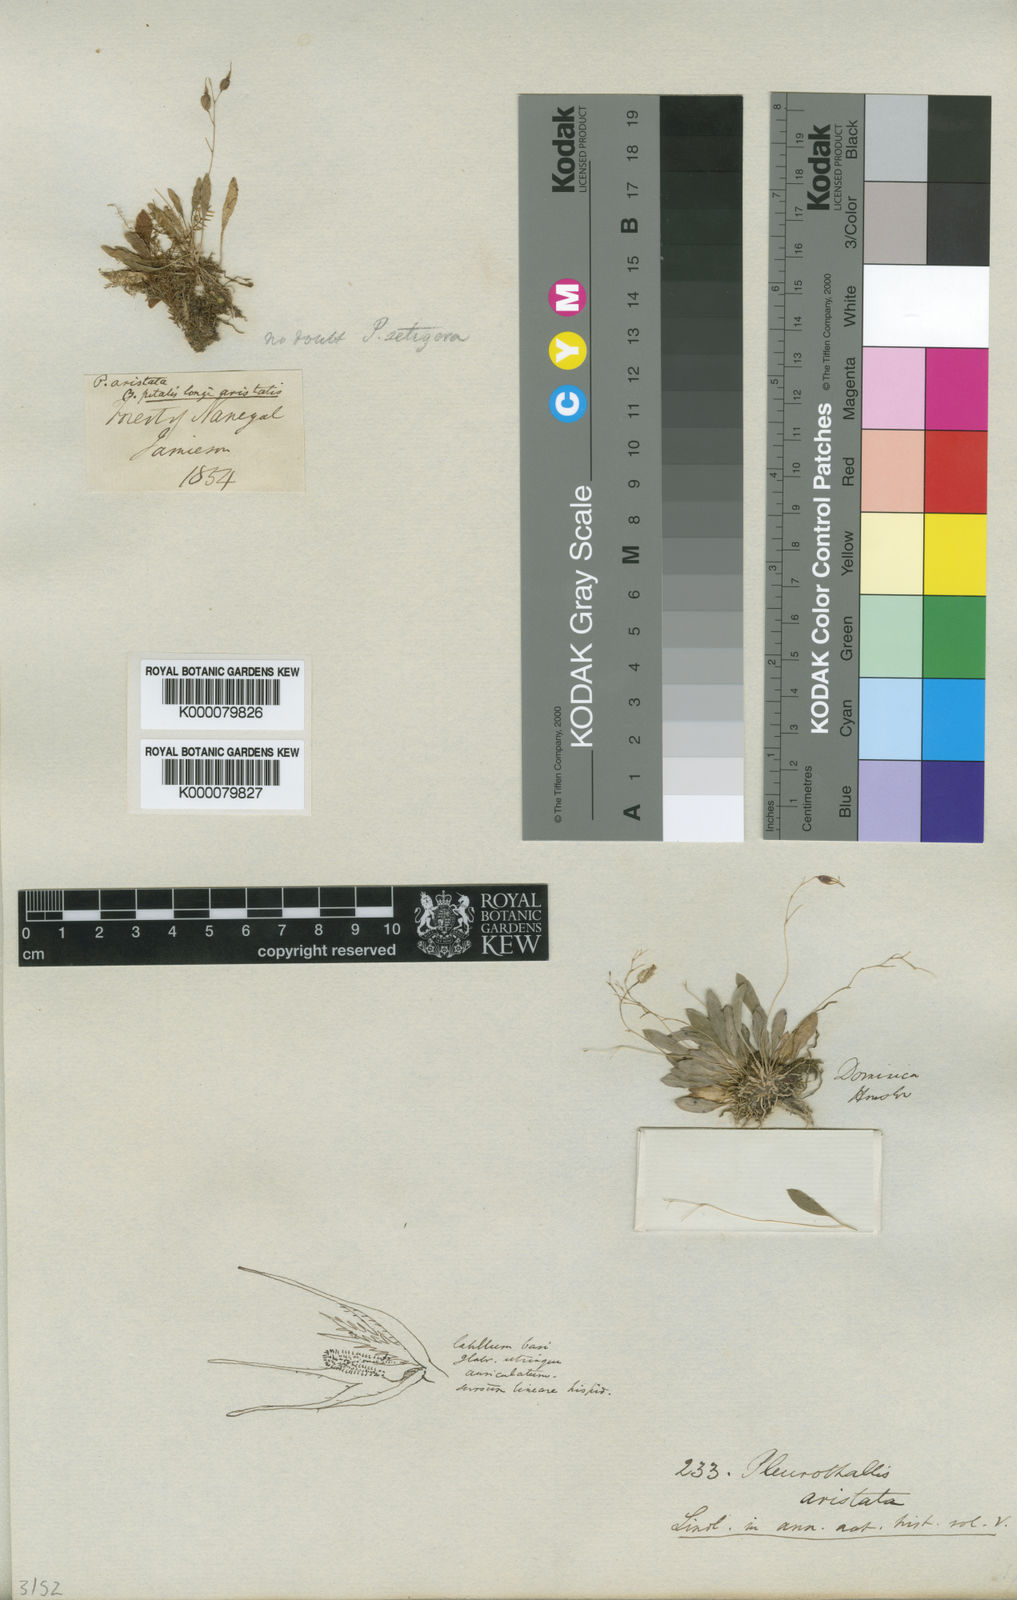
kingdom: Plantae
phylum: Tracheophyta
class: Liliopsida
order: Asparagales
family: Orchidaceae
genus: Muscarella
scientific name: Muscarella aristata
